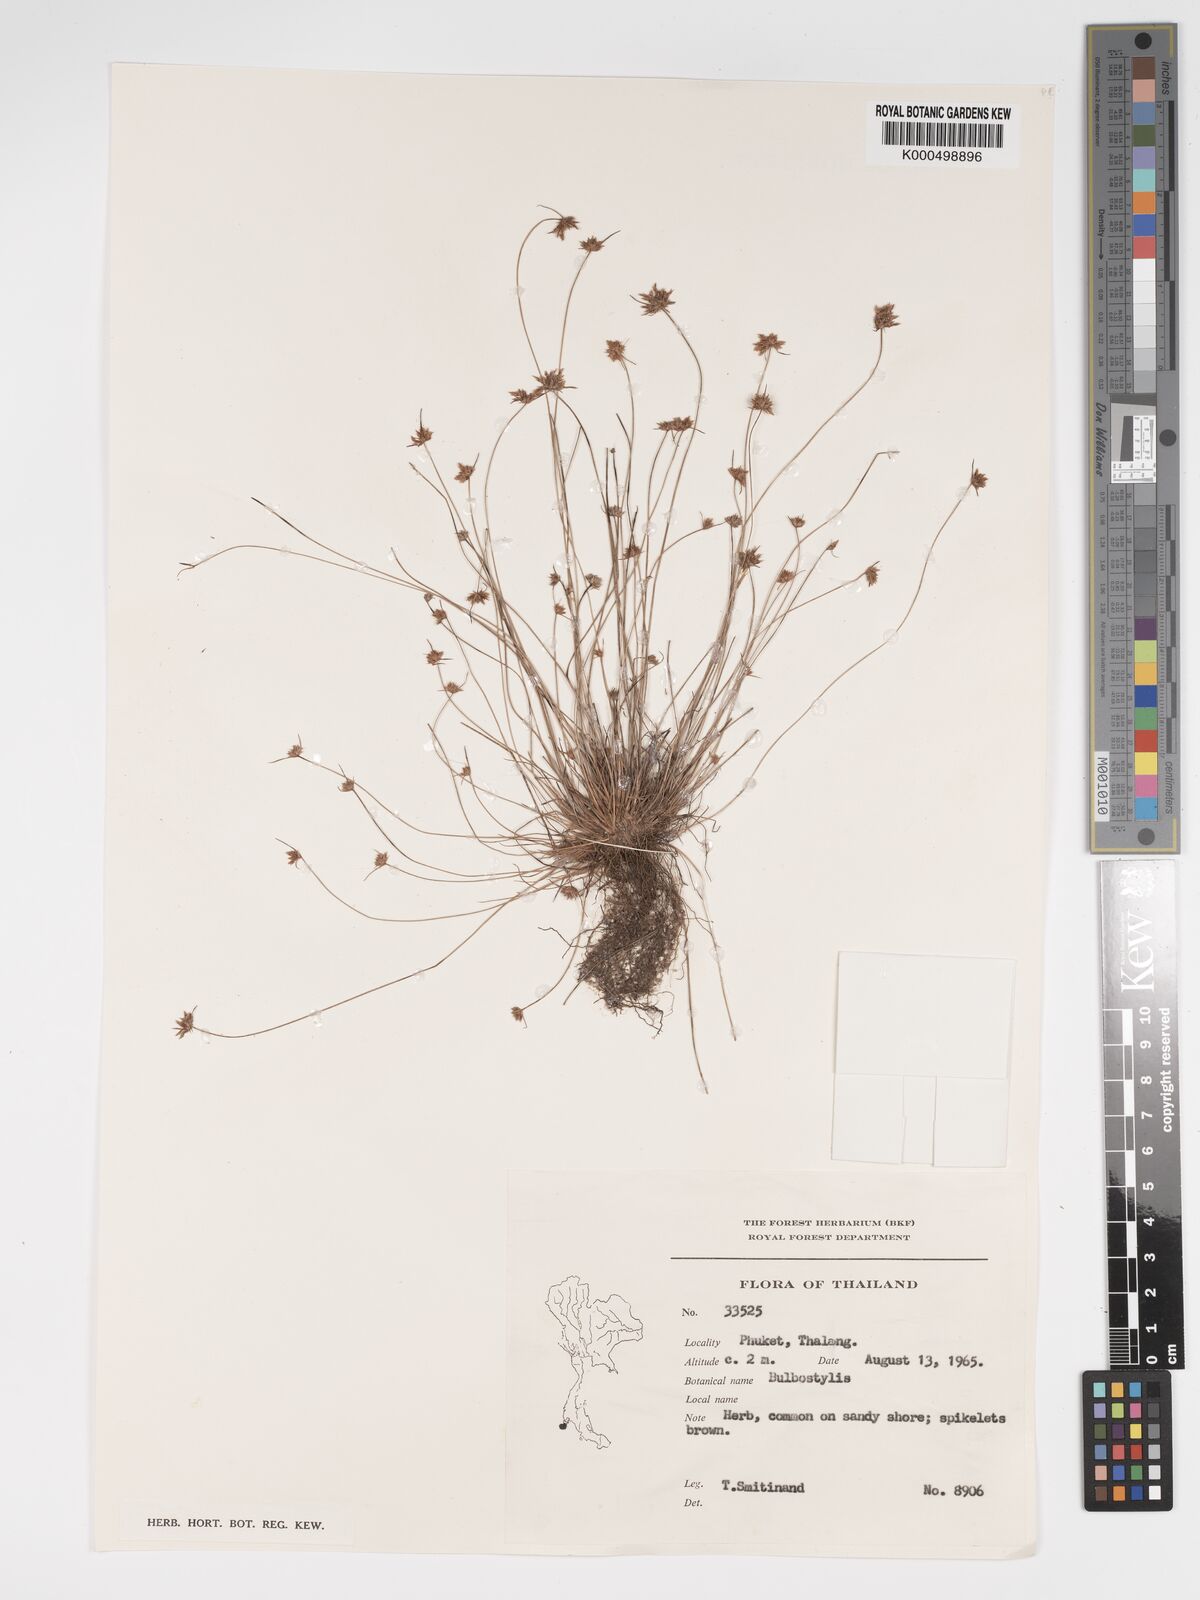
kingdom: Plantae
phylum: Tracheophyta
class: Liliopsida
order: Poales
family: Cyperaceae
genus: Bulbostylis
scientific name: Bulbostylis barbata
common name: Watergrass
